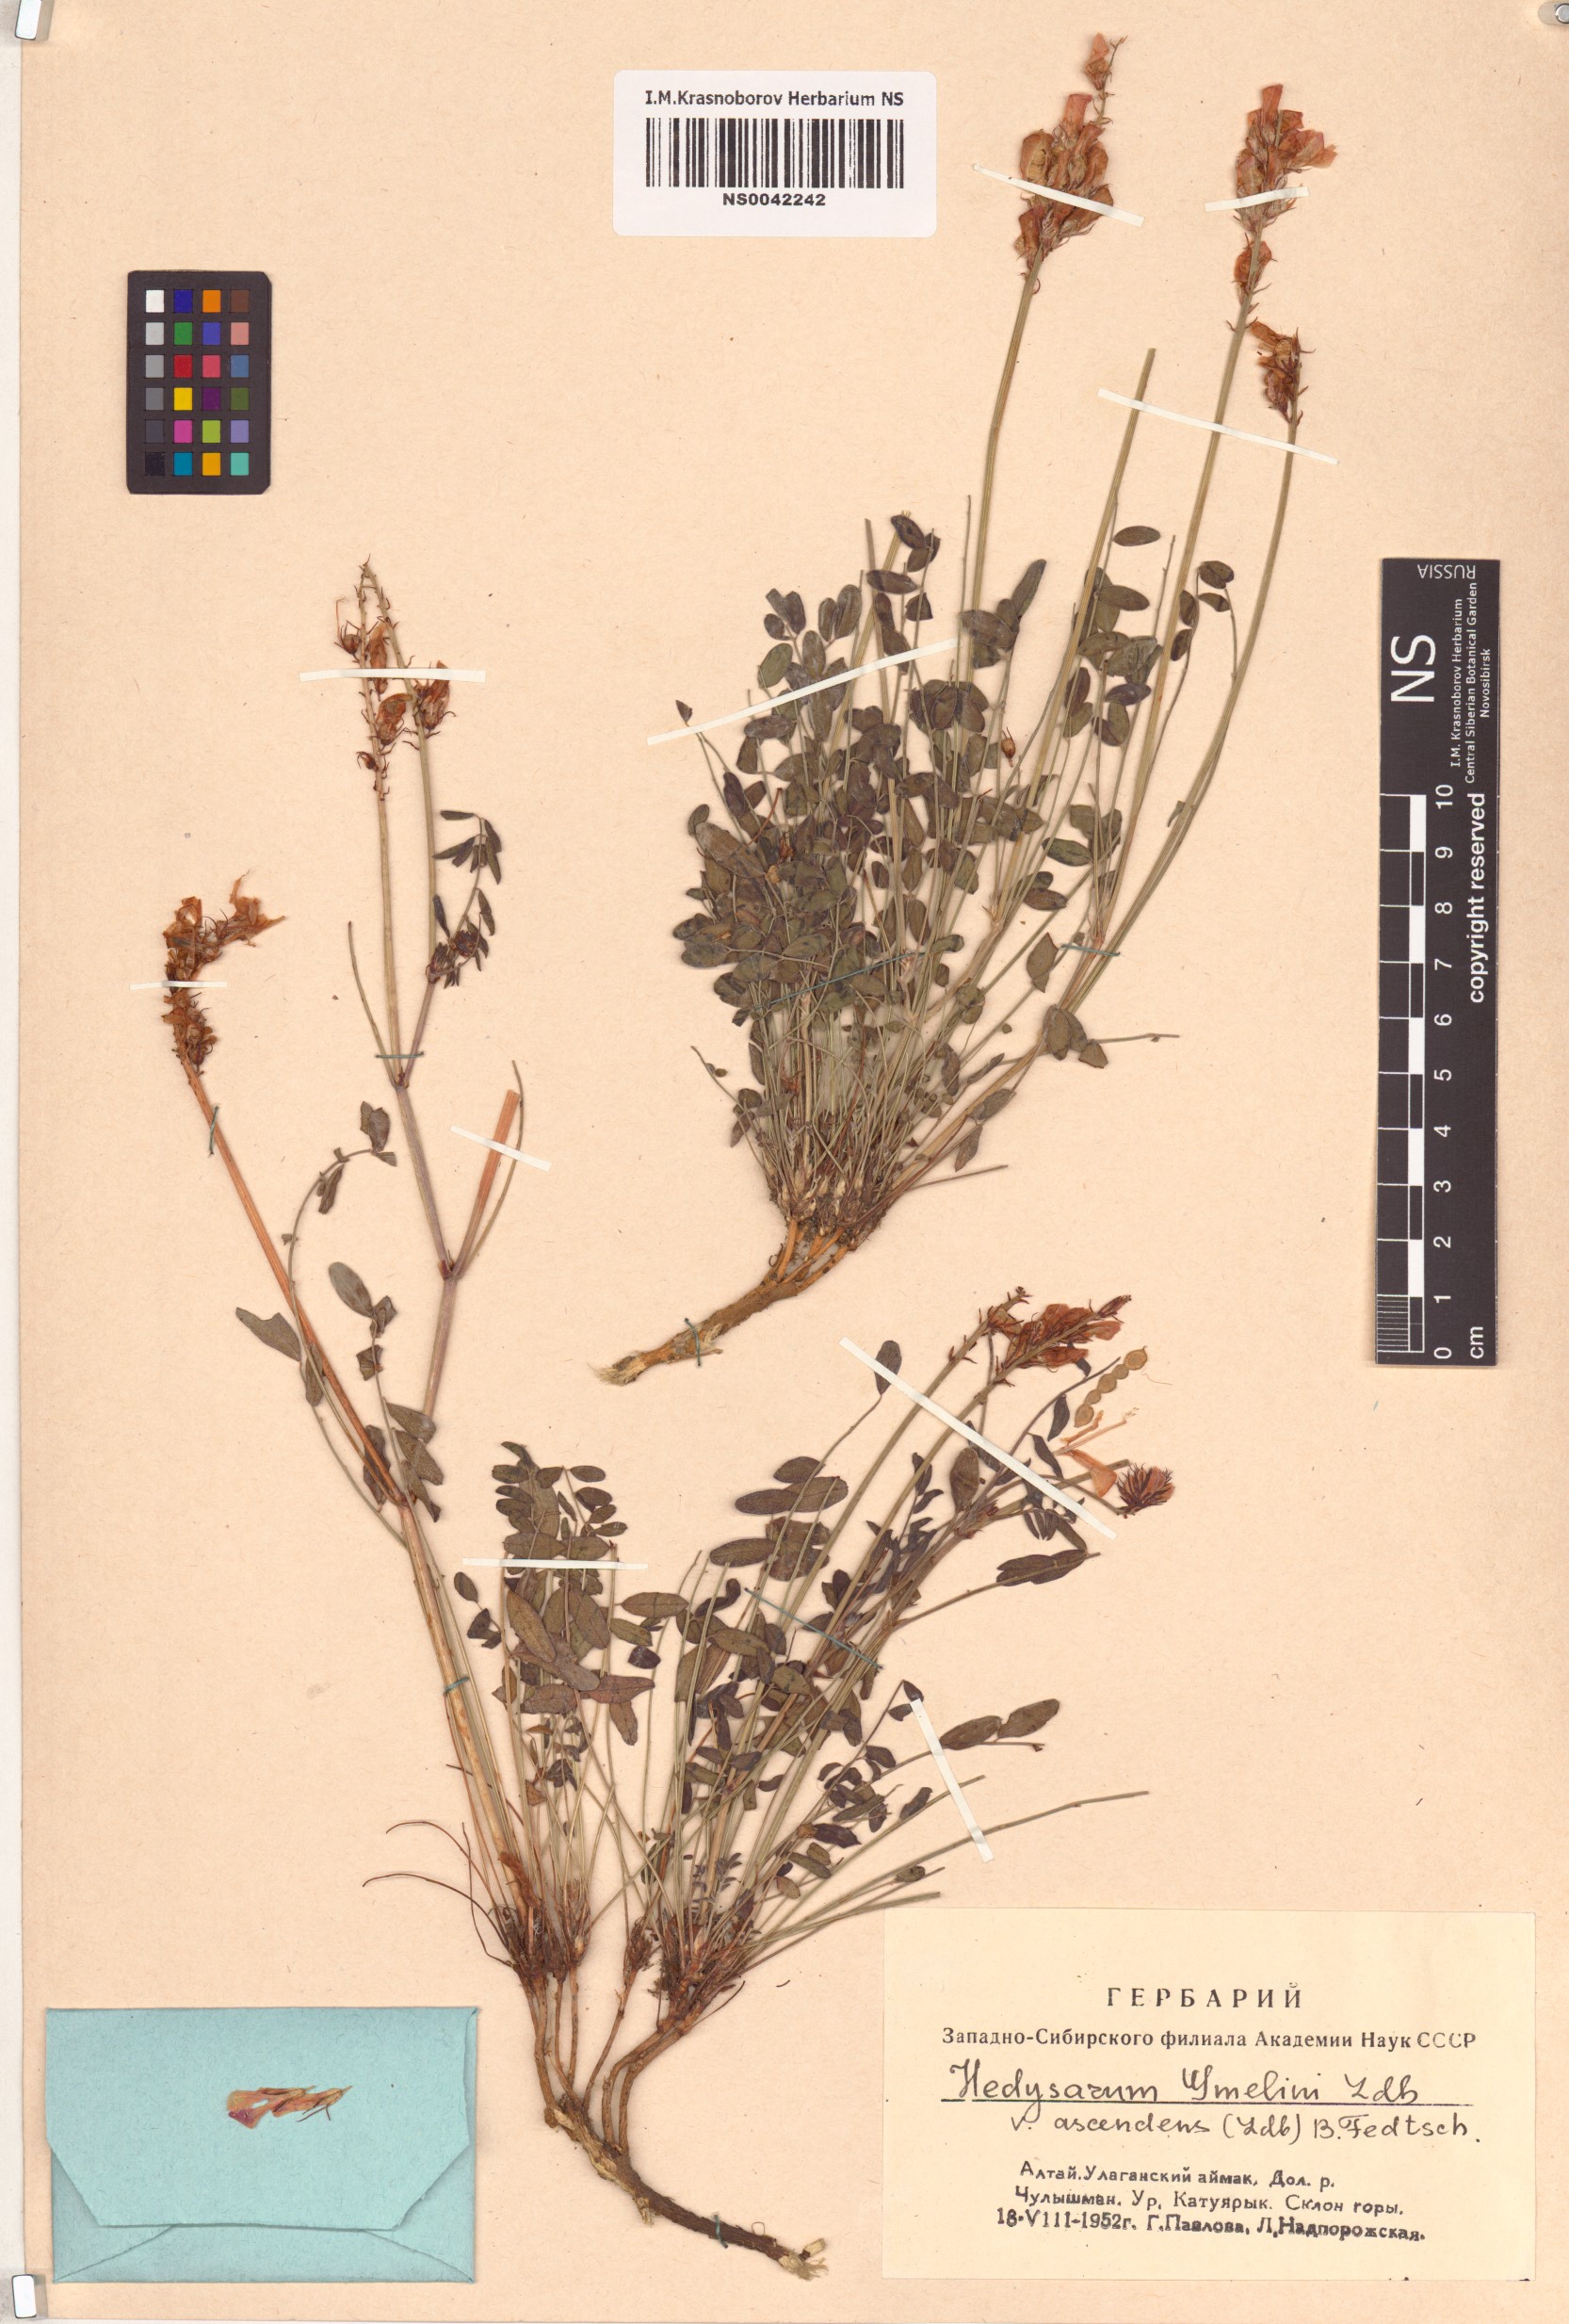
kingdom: Plantae
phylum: Tracheophyta
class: Magnoliopsida
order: Fabales
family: Fabaceae
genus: Hedysarum
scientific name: Hedysarum gmelinii
